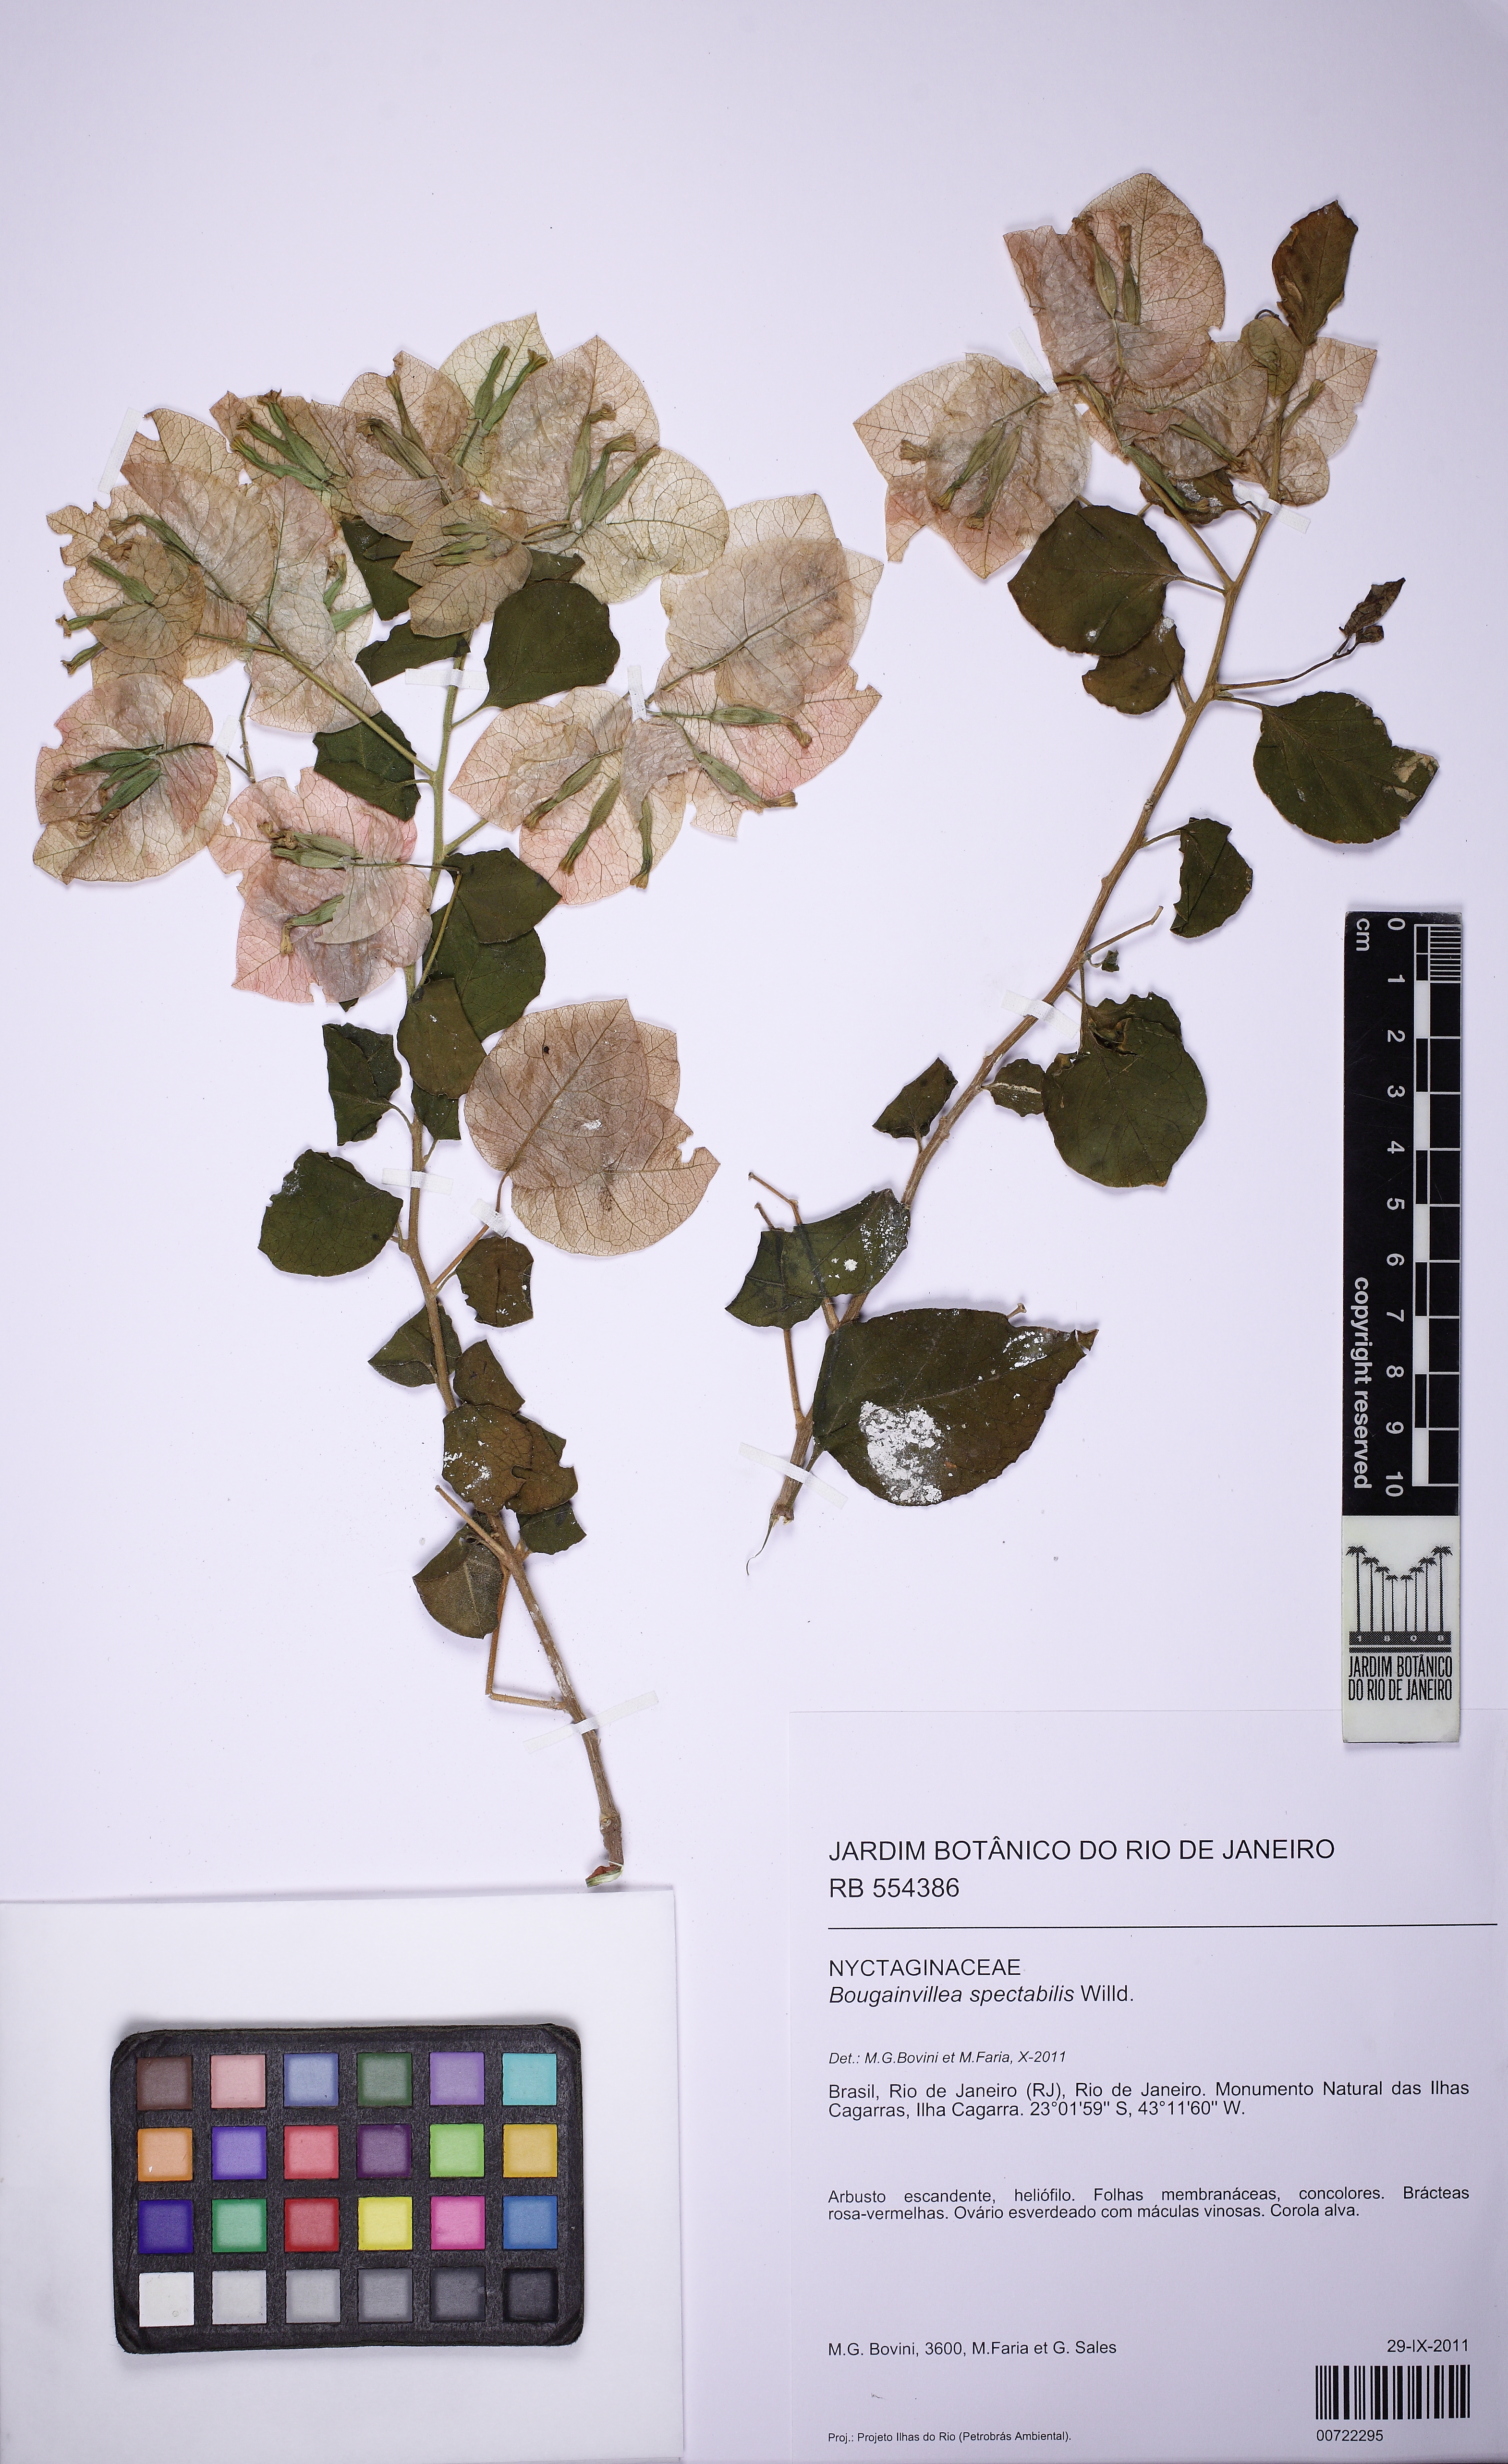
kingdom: Plantae
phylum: Tracheophyta
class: Magnoliopsida
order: Caryophyllales
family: Nyctaginaceae
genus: Bougainvillea
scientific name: Bougainvillea spectabilis
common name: Great bougainvillea
